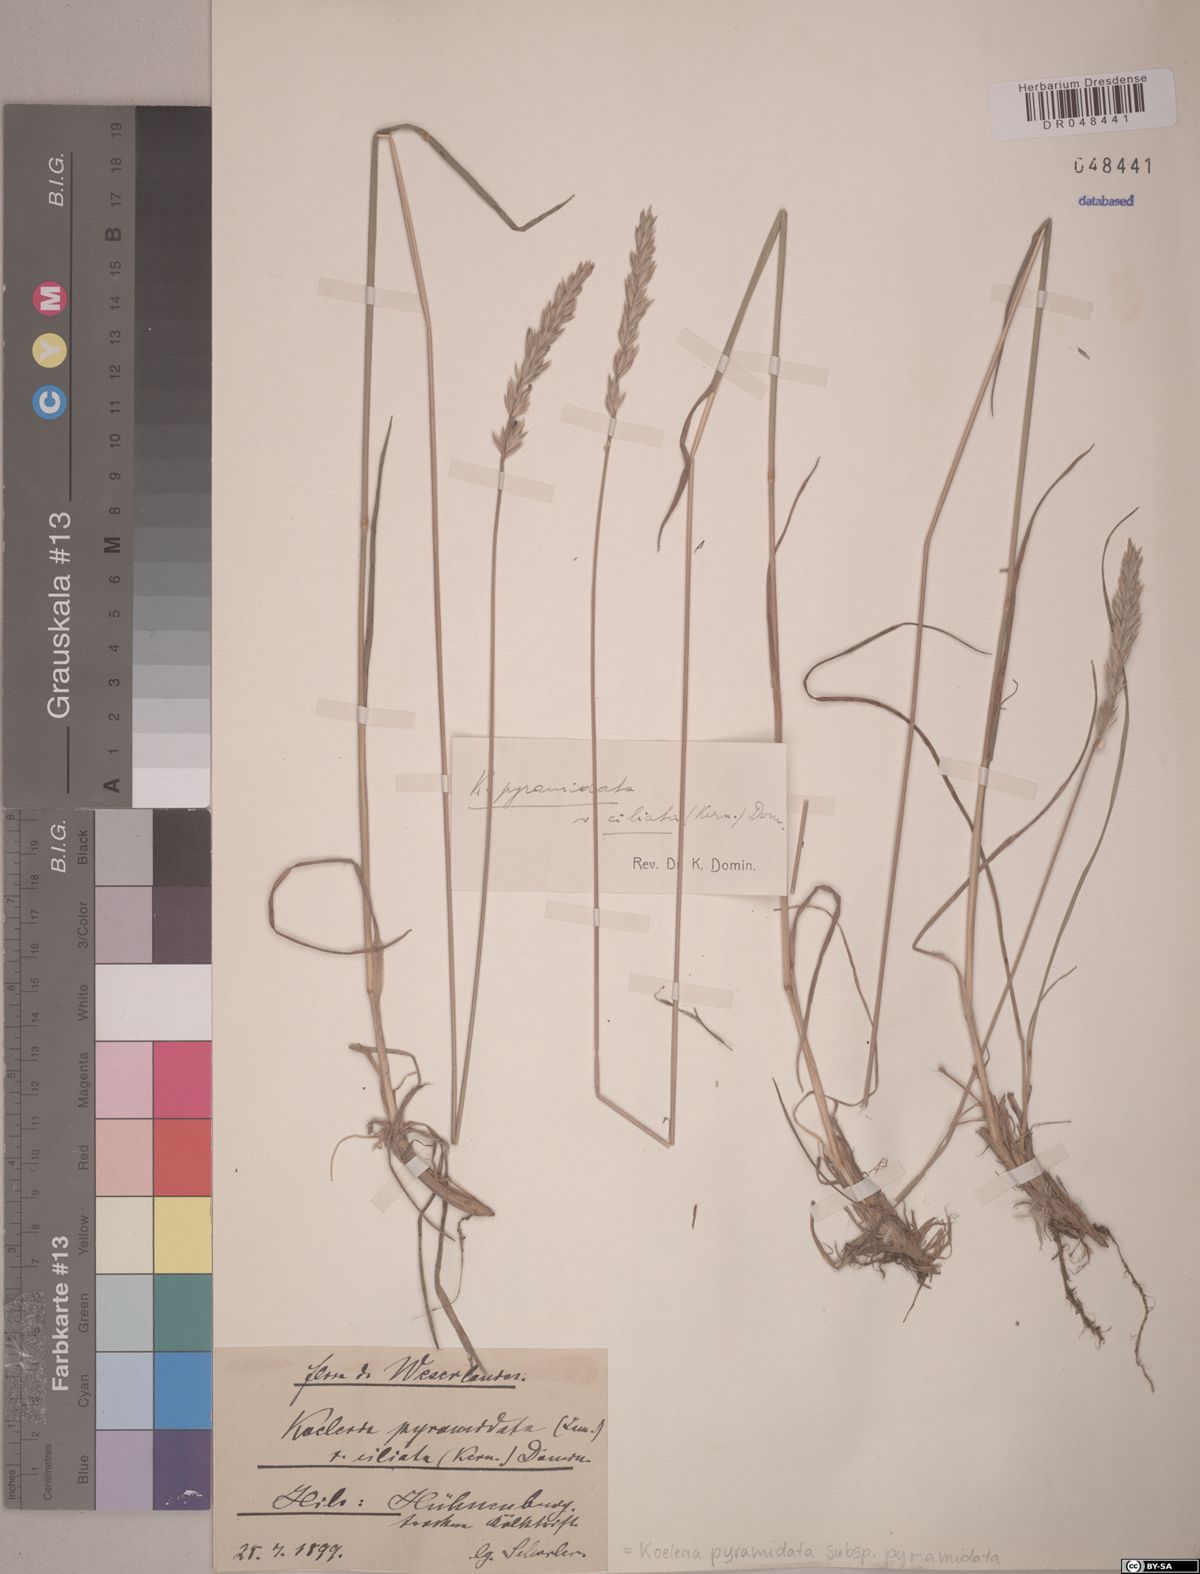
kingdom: Plantae
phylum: Tracheophyta
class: Liliopsida
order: Poales
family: Poaceae
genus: Koeleria
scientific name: Koeleria pyramidata
